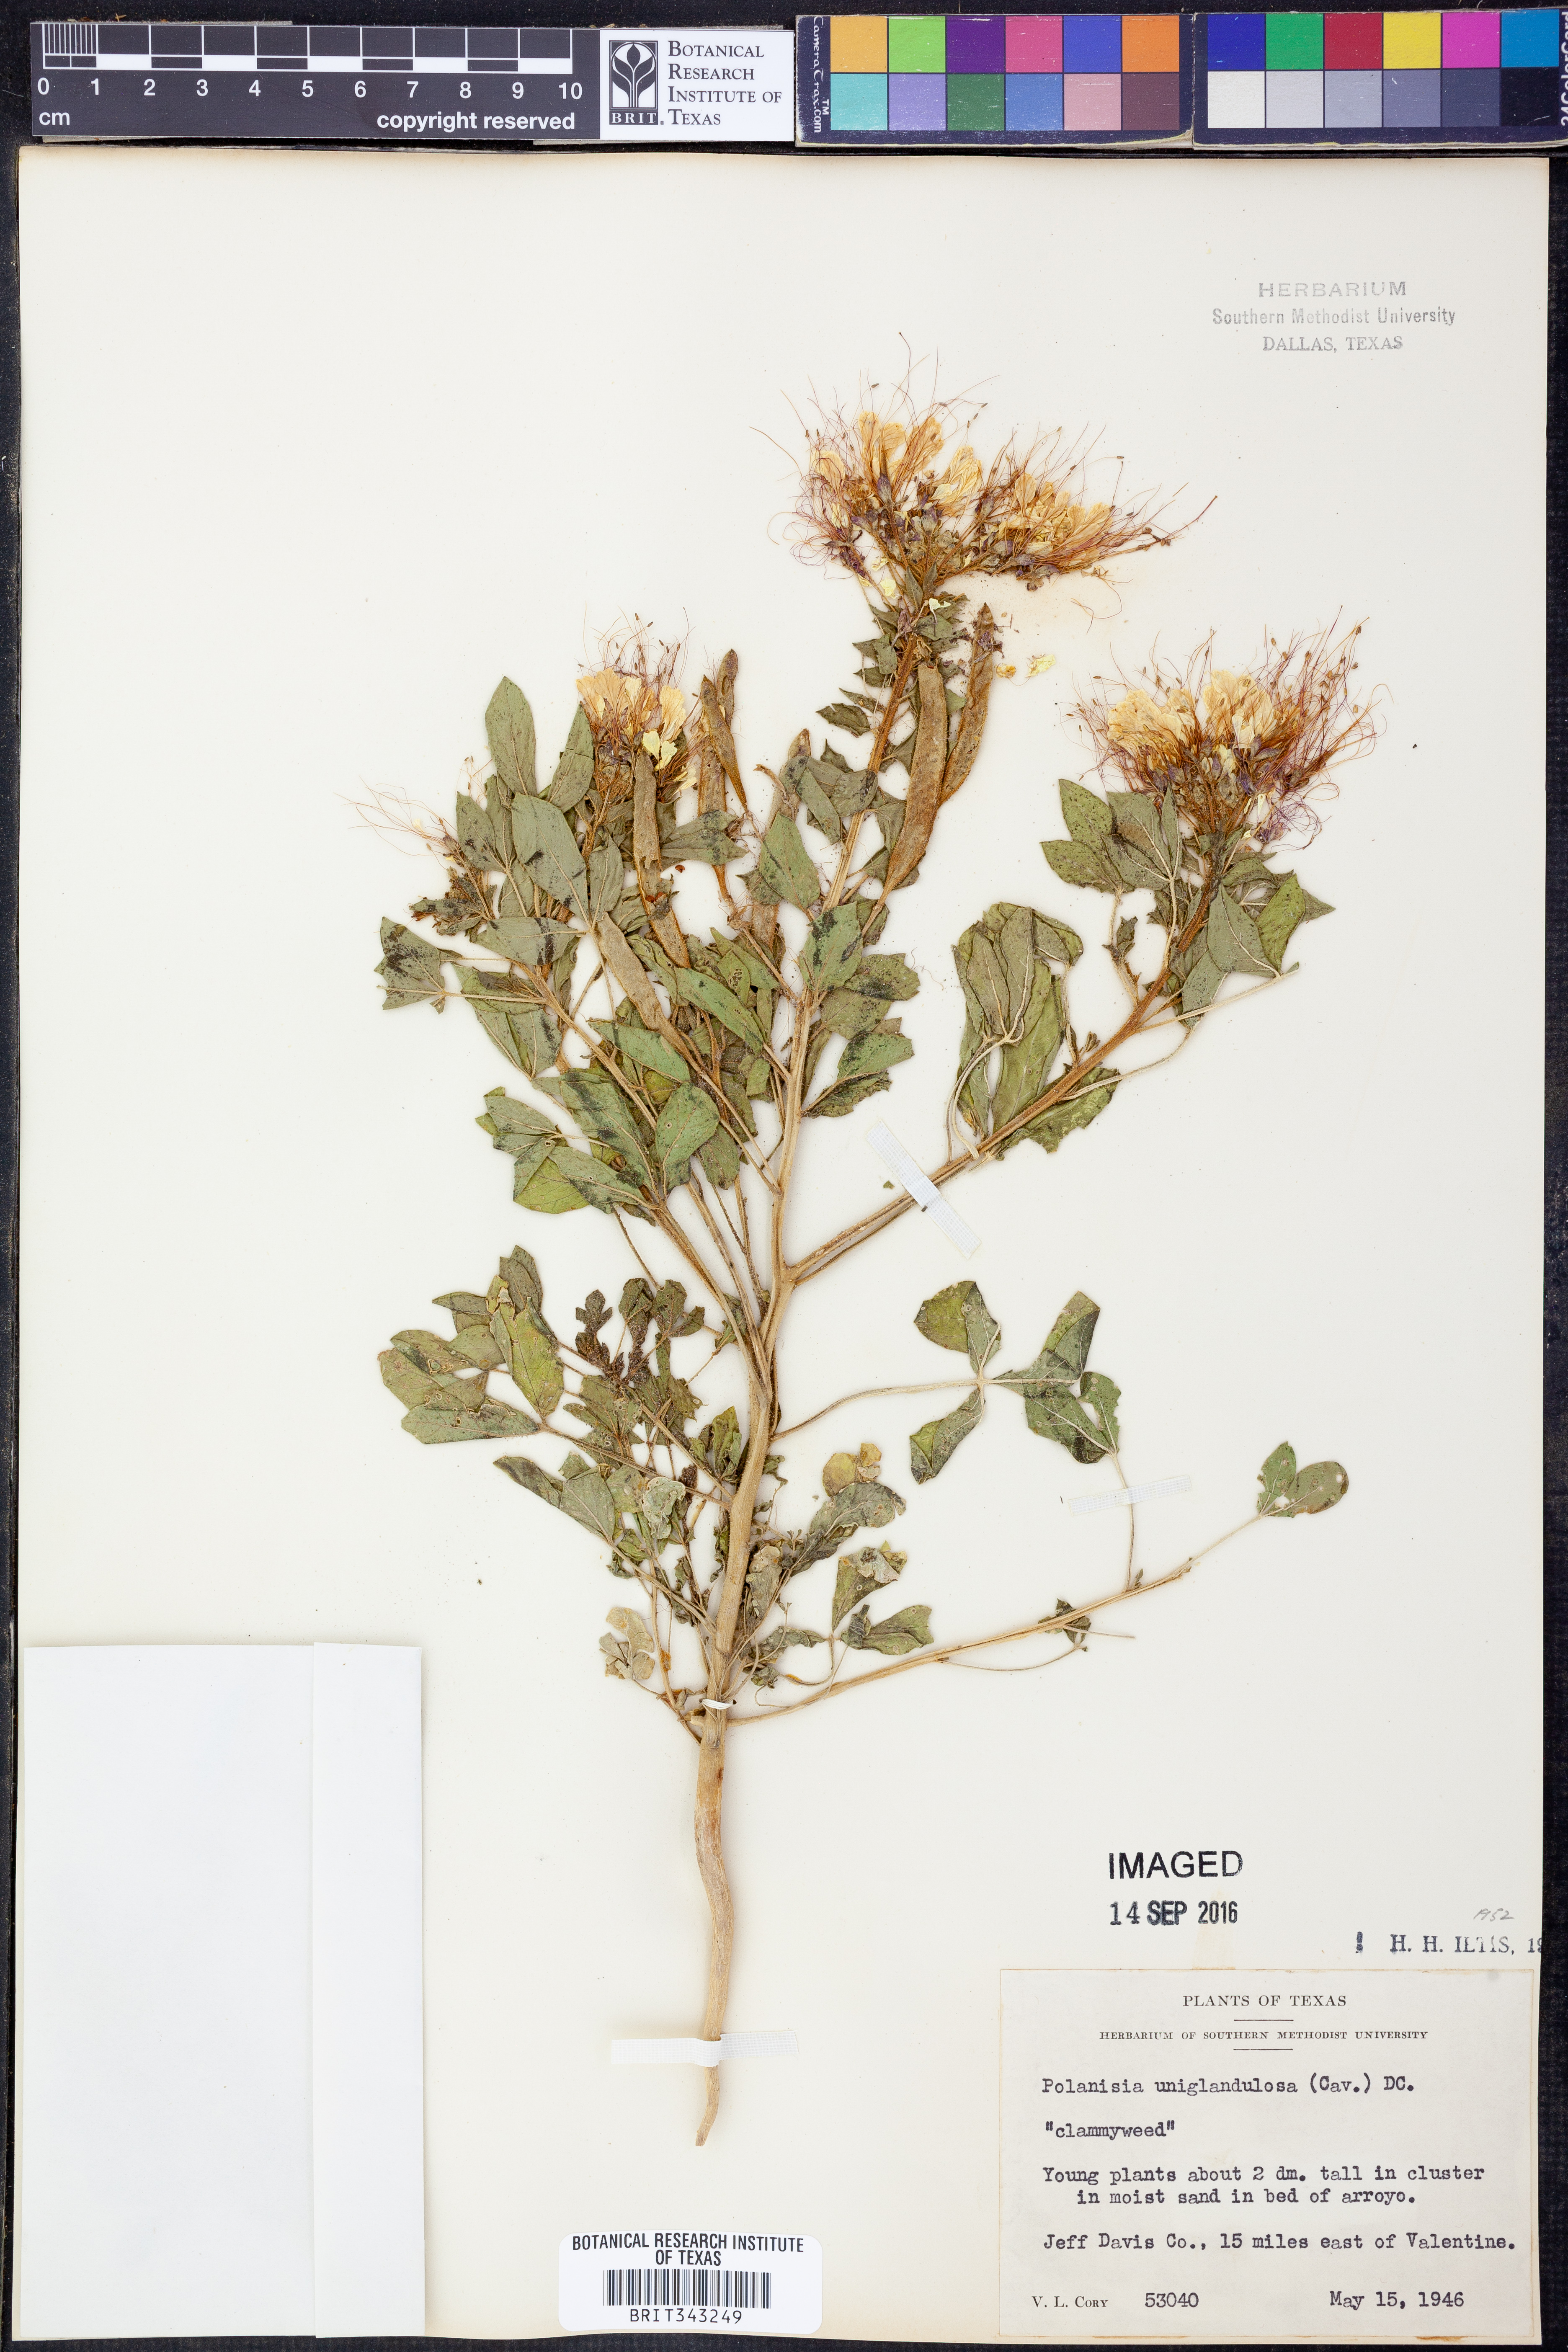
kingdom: Plantae
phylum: Tracheophyta
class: Magnoliopsida
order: Brassicales
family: Cleomaceae
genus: Polanisia
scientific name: Polanisia uniglandulosa
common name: Mexican clammyweed
